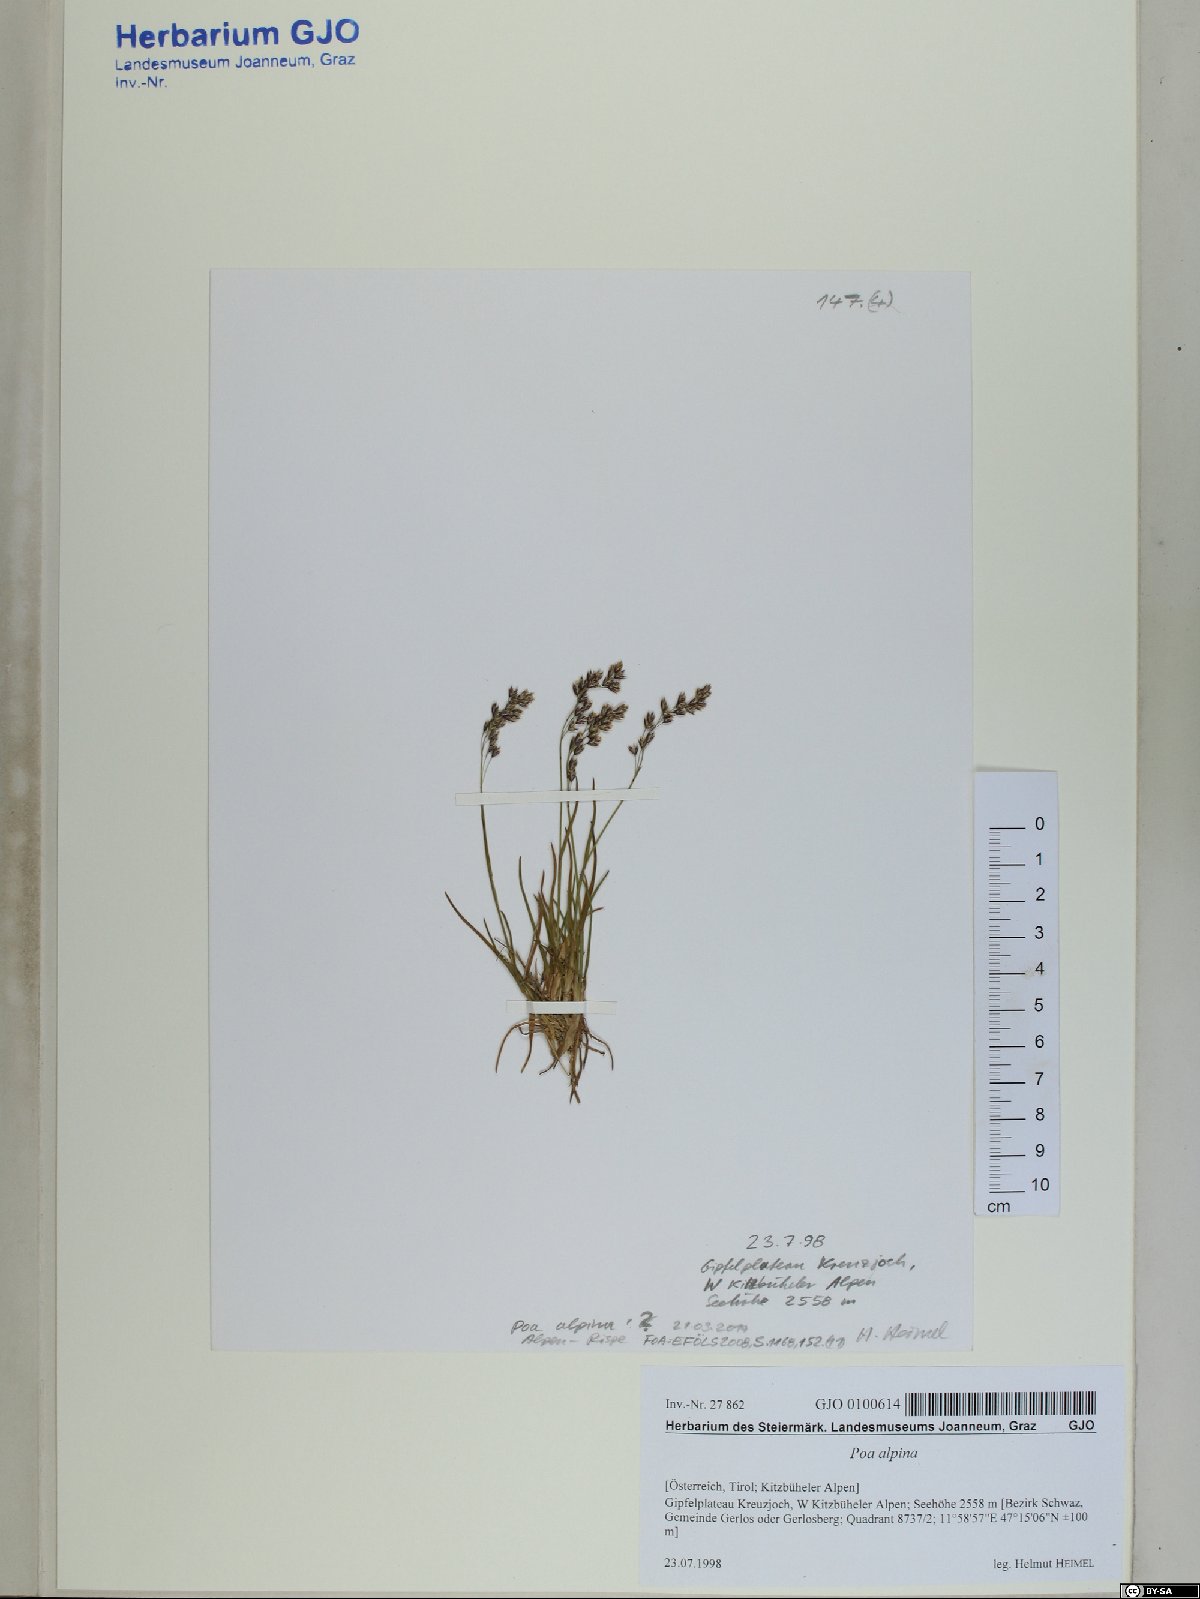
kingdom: Plantae
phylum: Tracheophyta
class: Liliopsida
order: Poales
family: Poaceae
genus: Poa
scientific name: Poa alpina
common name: Alpine bluegrass
